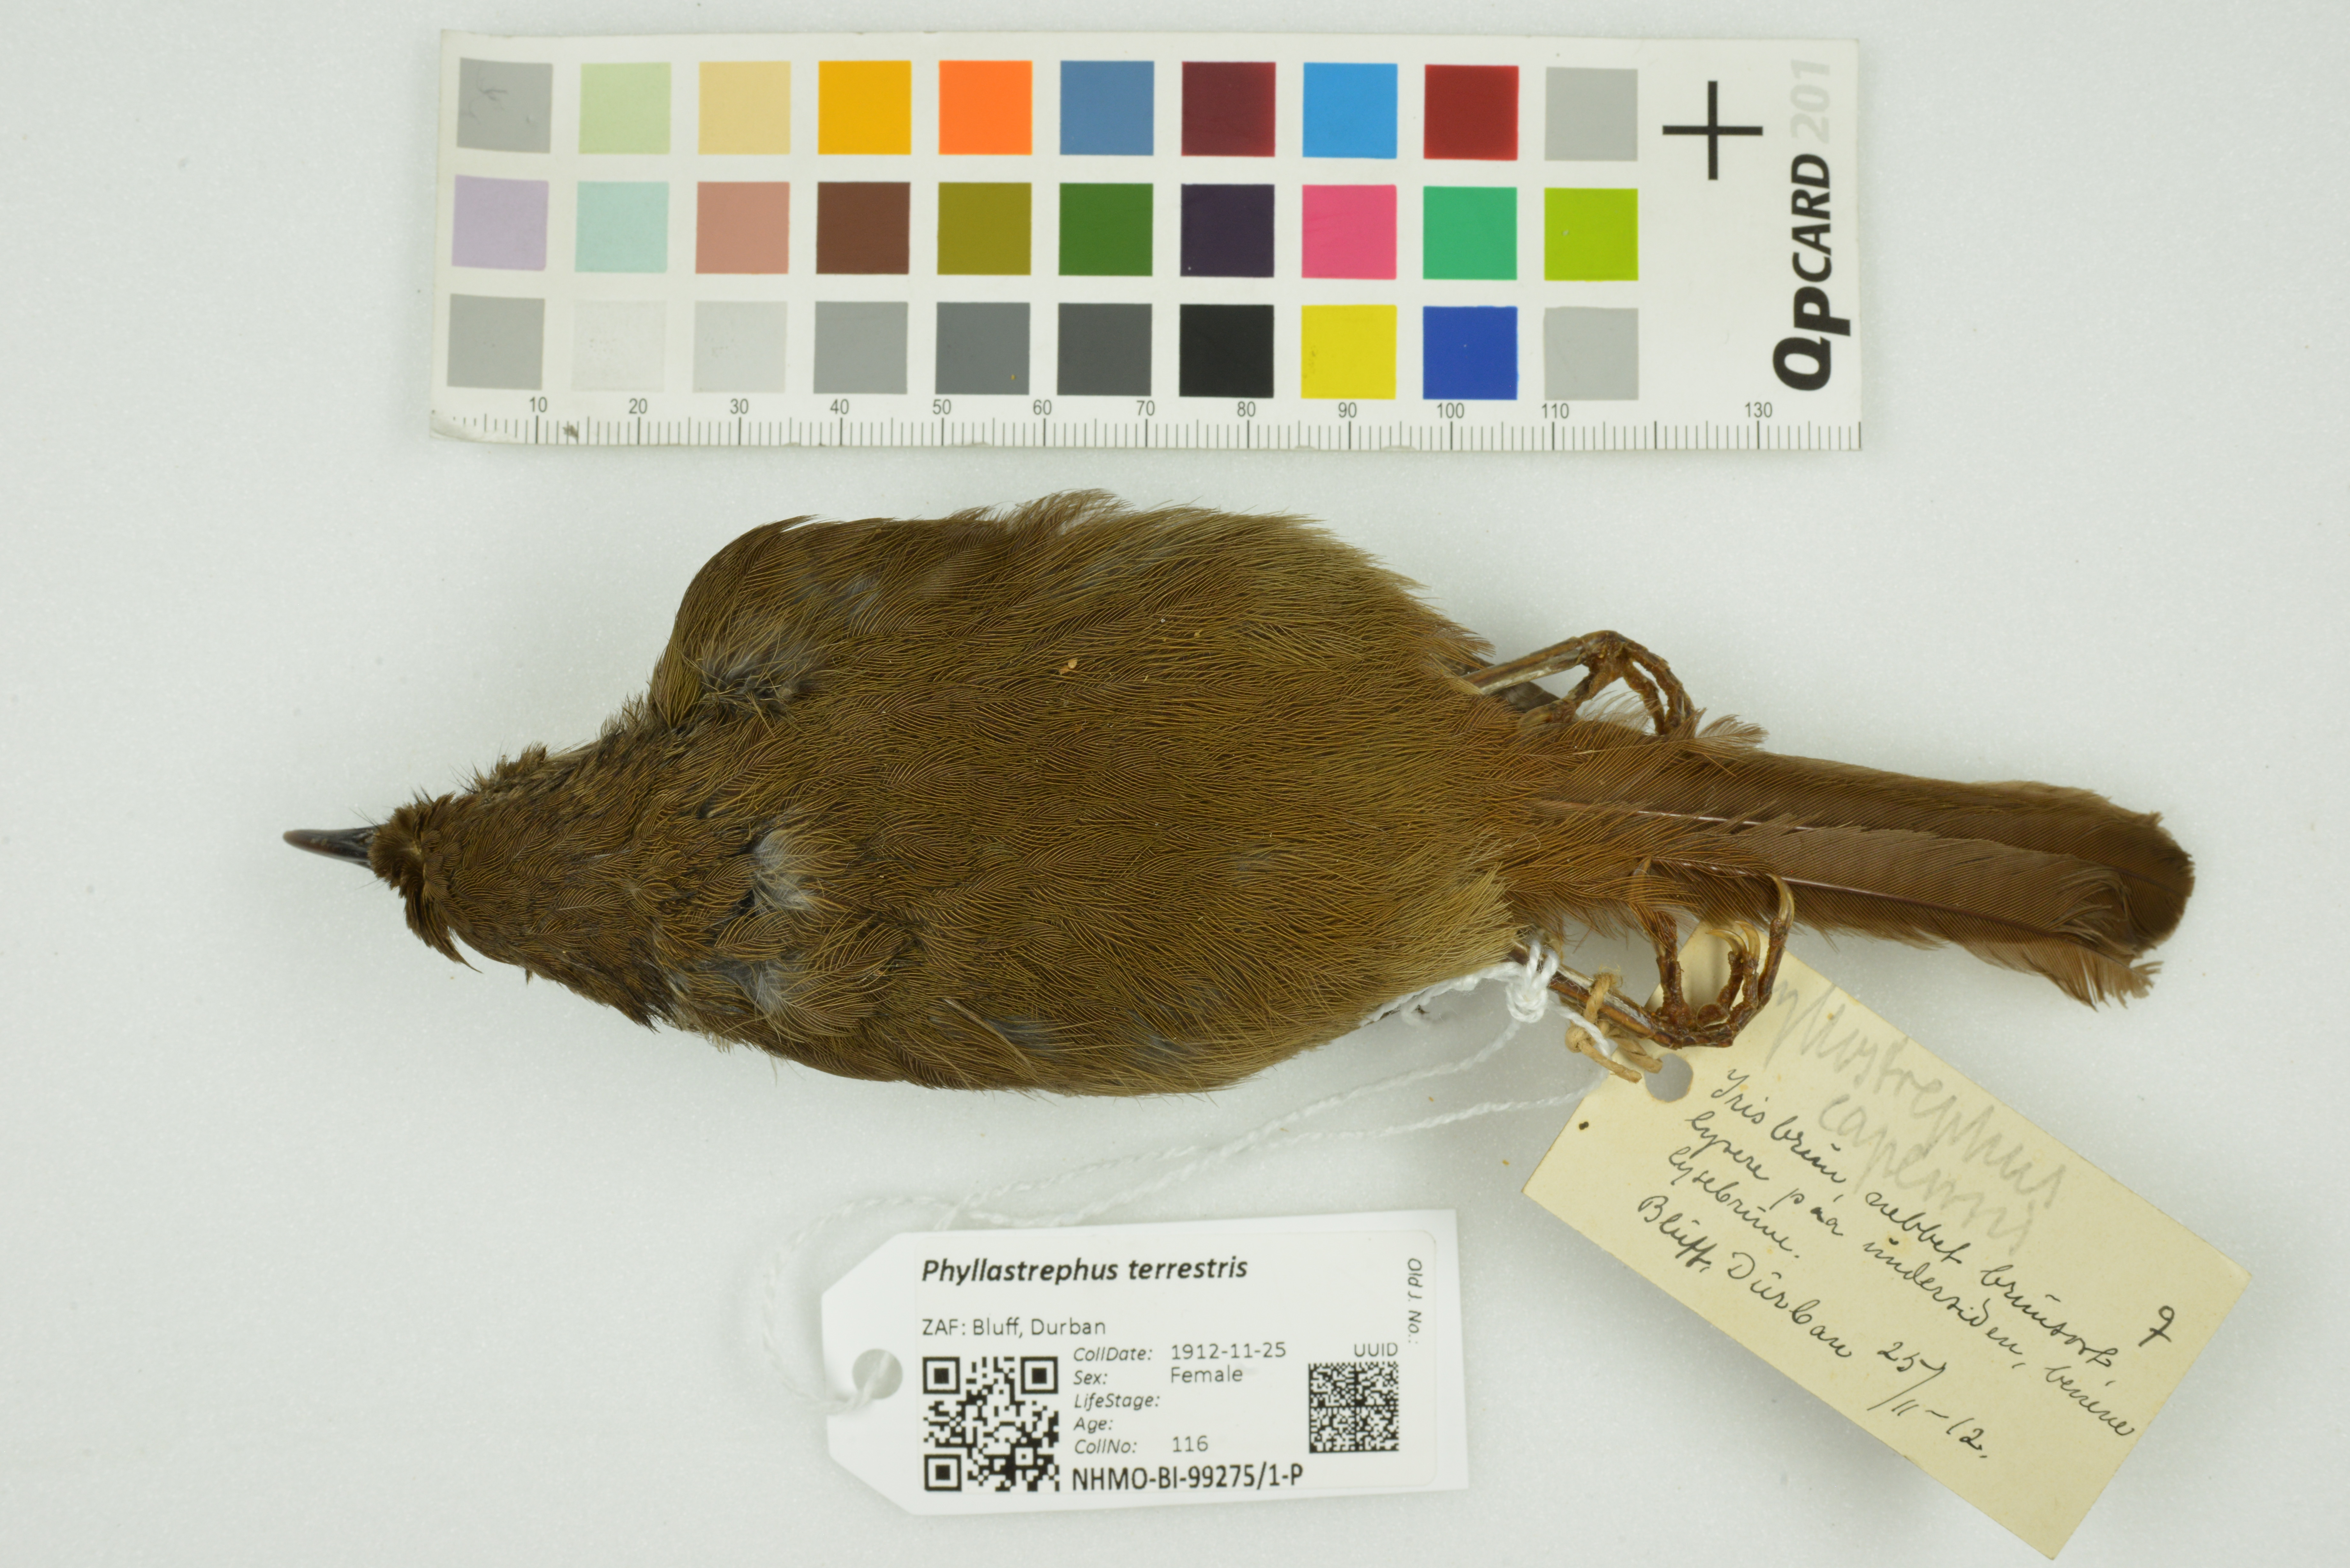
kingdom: Animalia
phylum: Chordata
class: Aves
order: Passeriformes
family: Pycnonotidae
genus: Phyllastrephus
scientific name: Phyllastrephus terrestris
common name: Terrestrial brownbul
